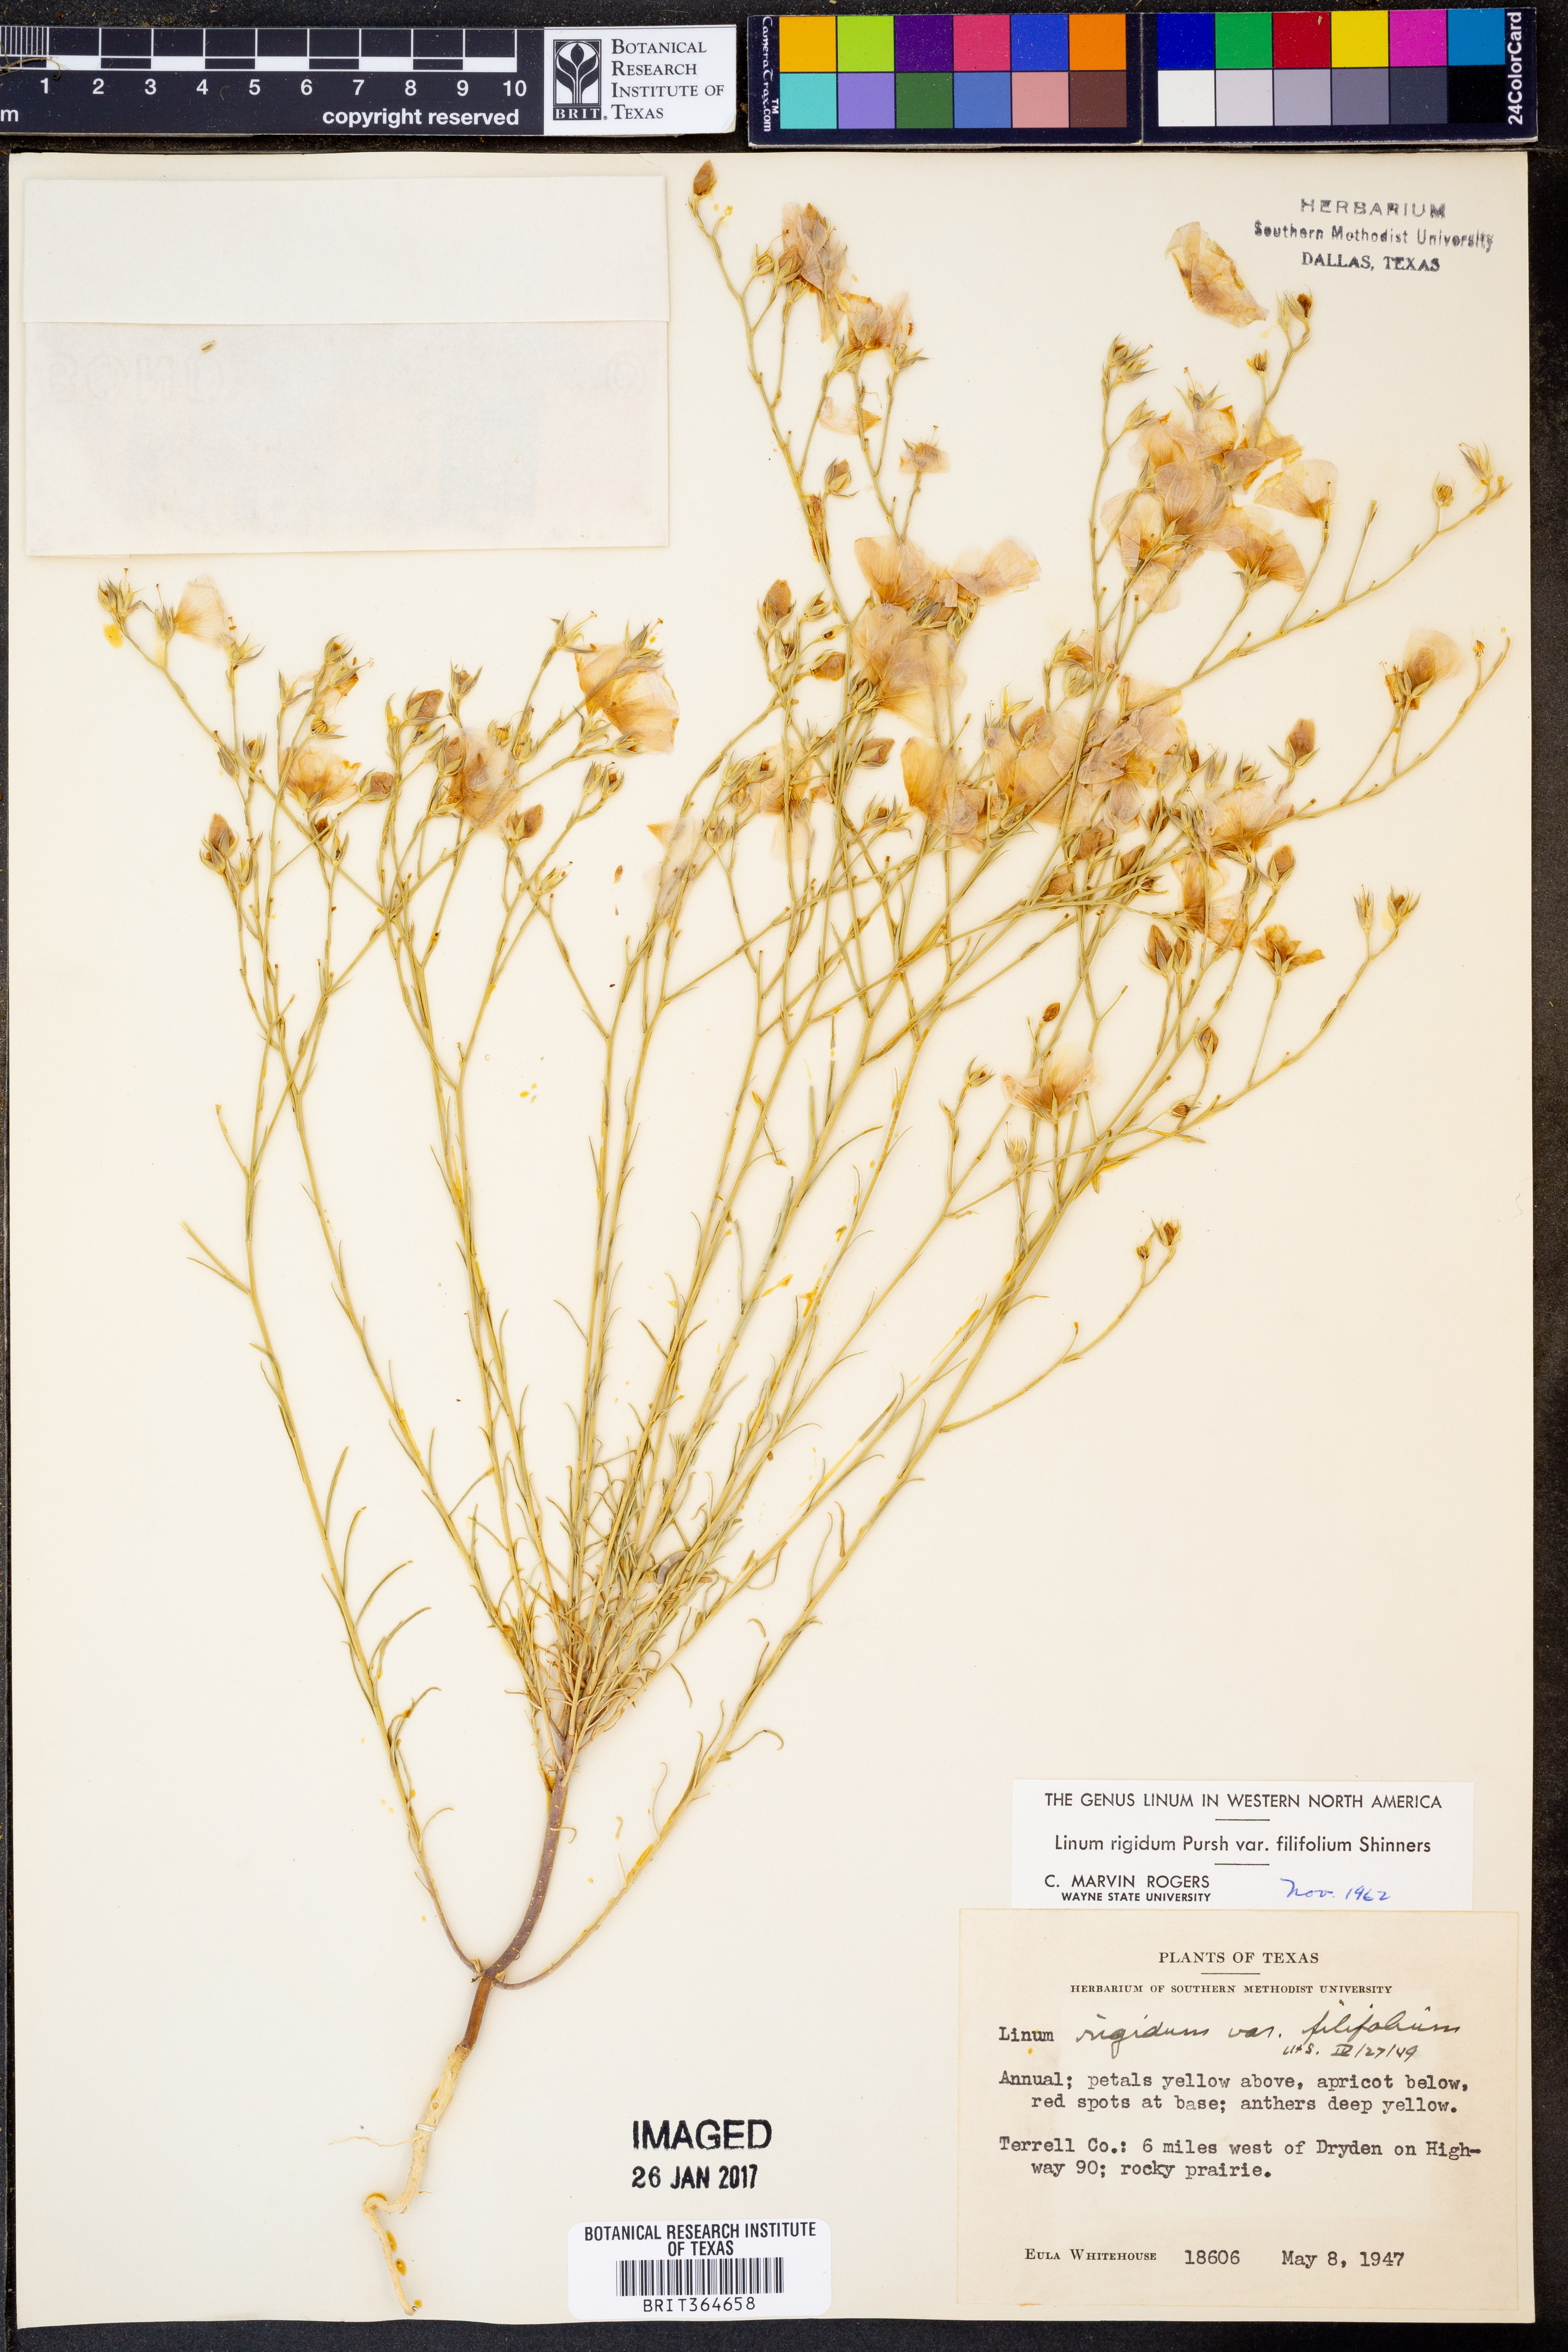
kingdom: Plantae
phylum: Tracheophyta
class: Magnoliopsida
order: Malpighiales
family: Linaceae
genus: Linum
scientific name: Linum berlandieri
